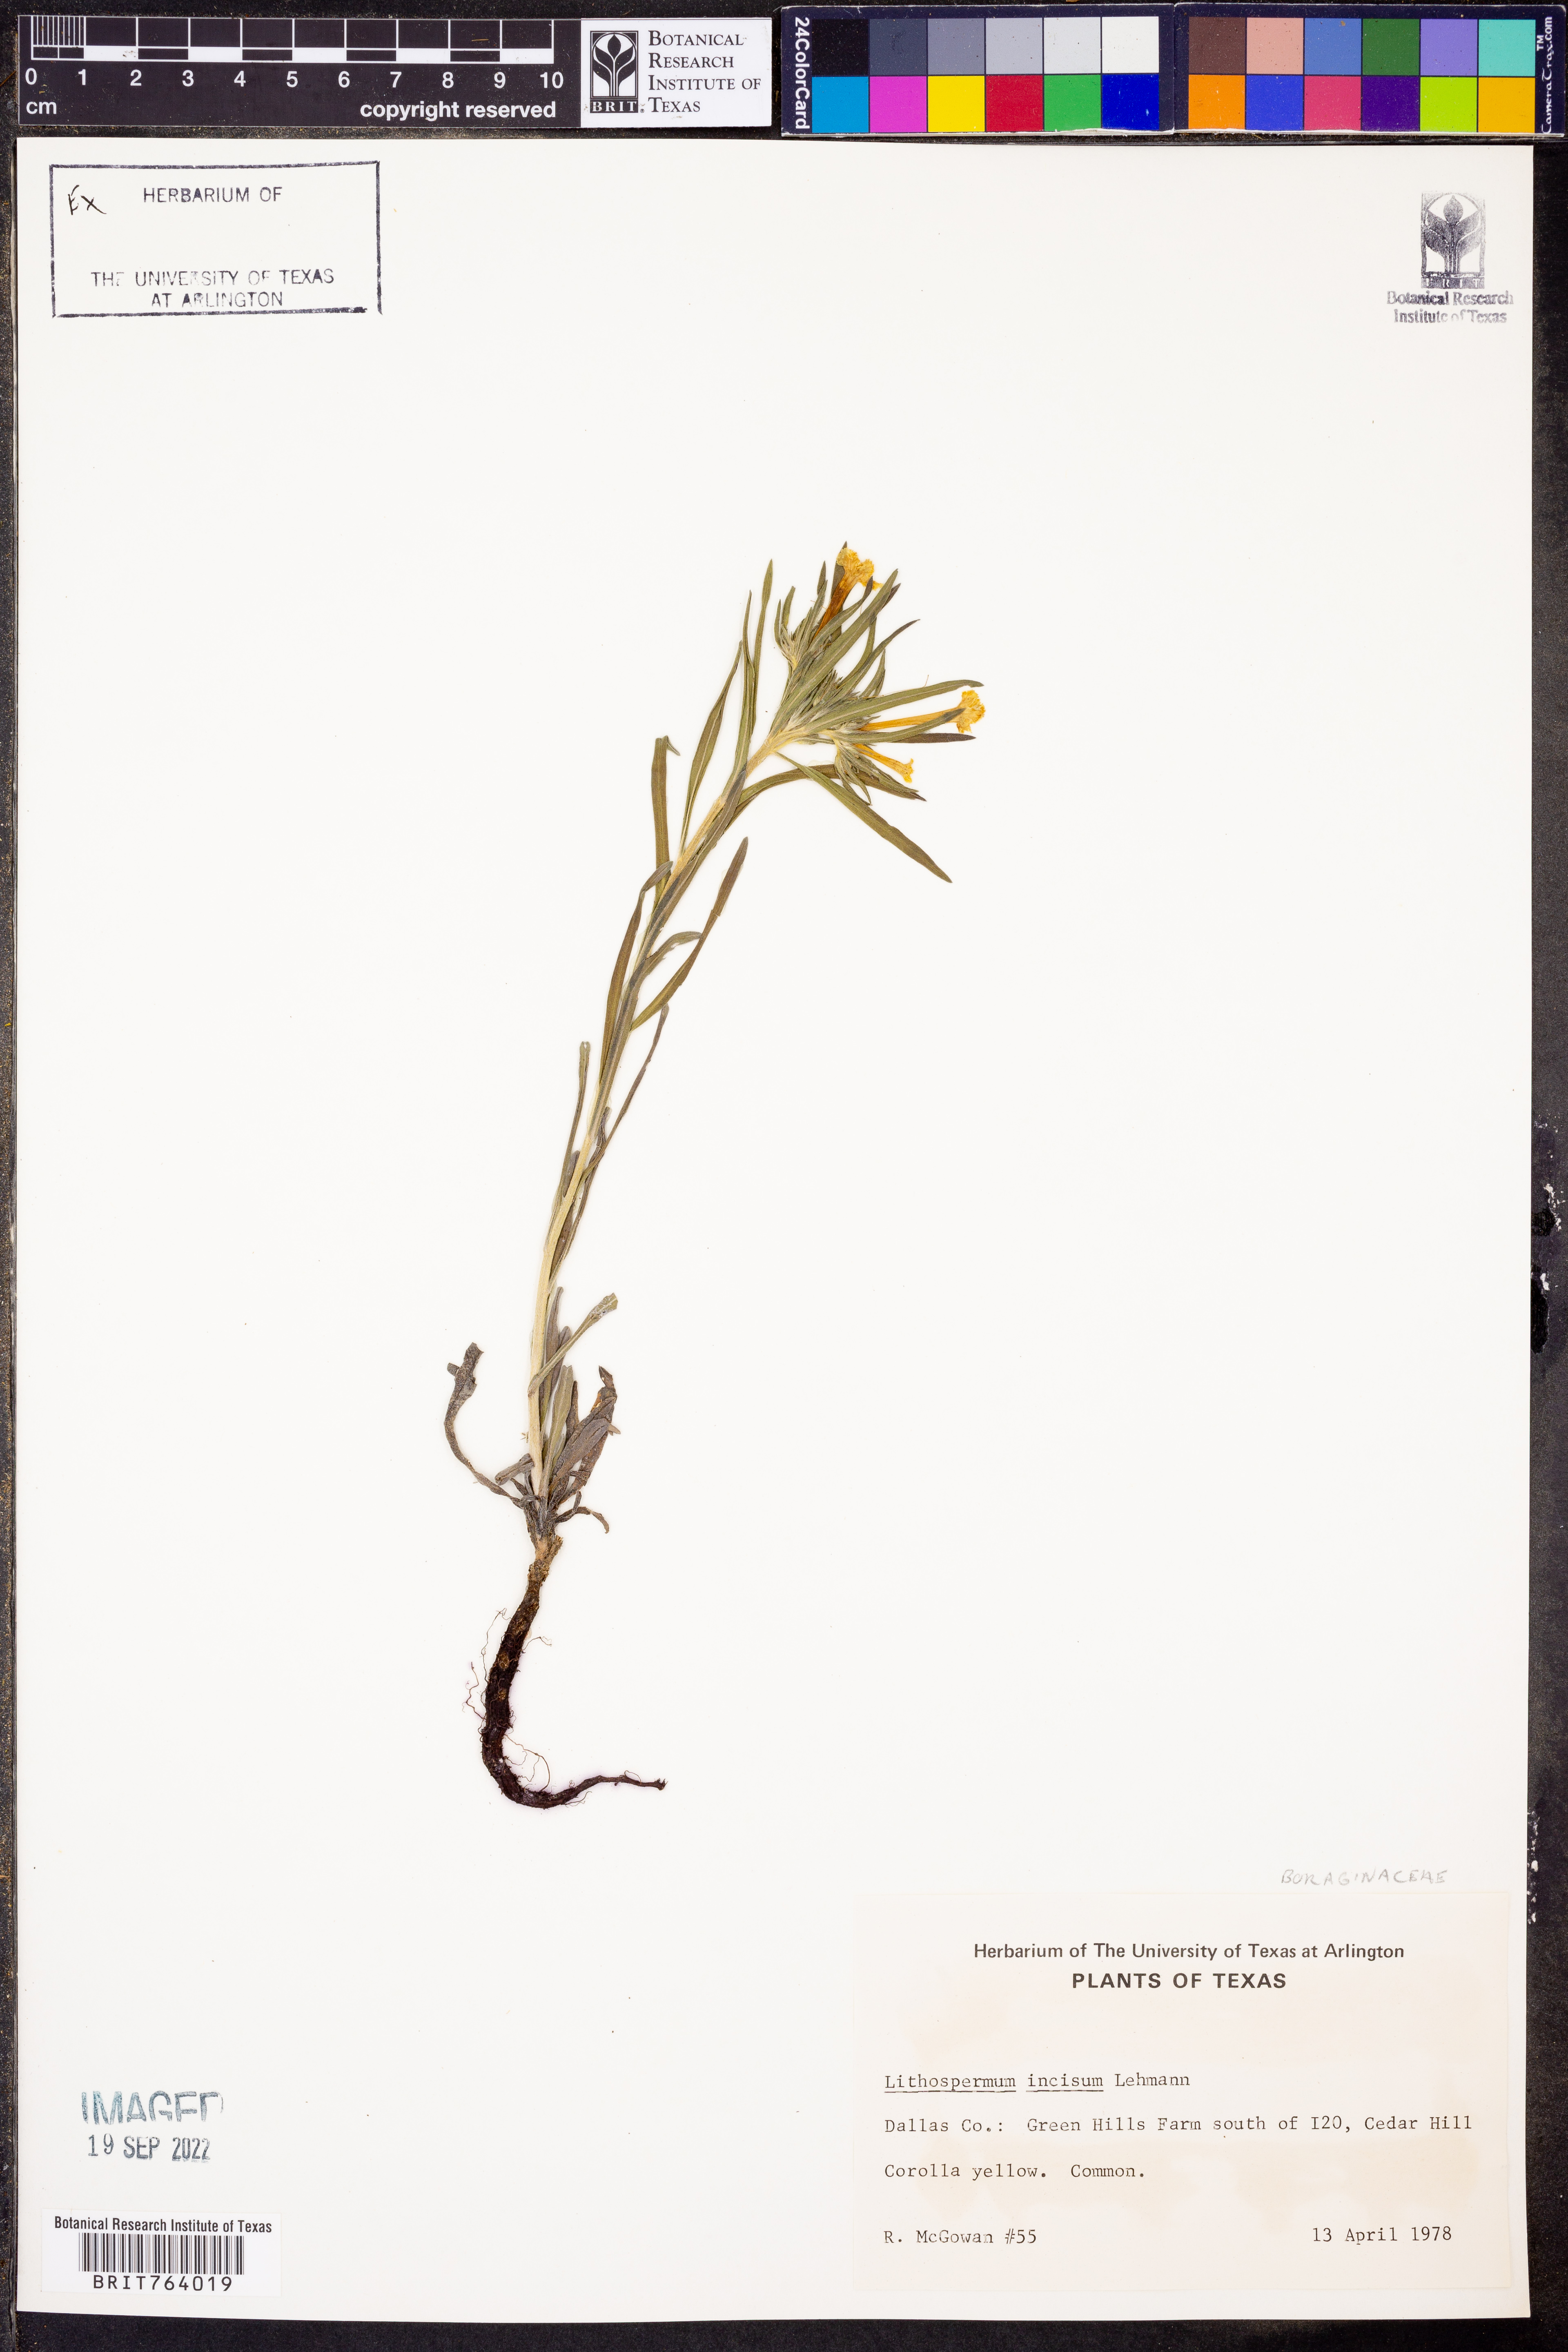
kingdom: Plantae
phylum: Tracheophyta
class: Magnoliopsida
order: Boraginales
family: Boraginaceae
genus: Lithospermum
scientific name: Lithospermum incisum
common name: Fringed gromwell
